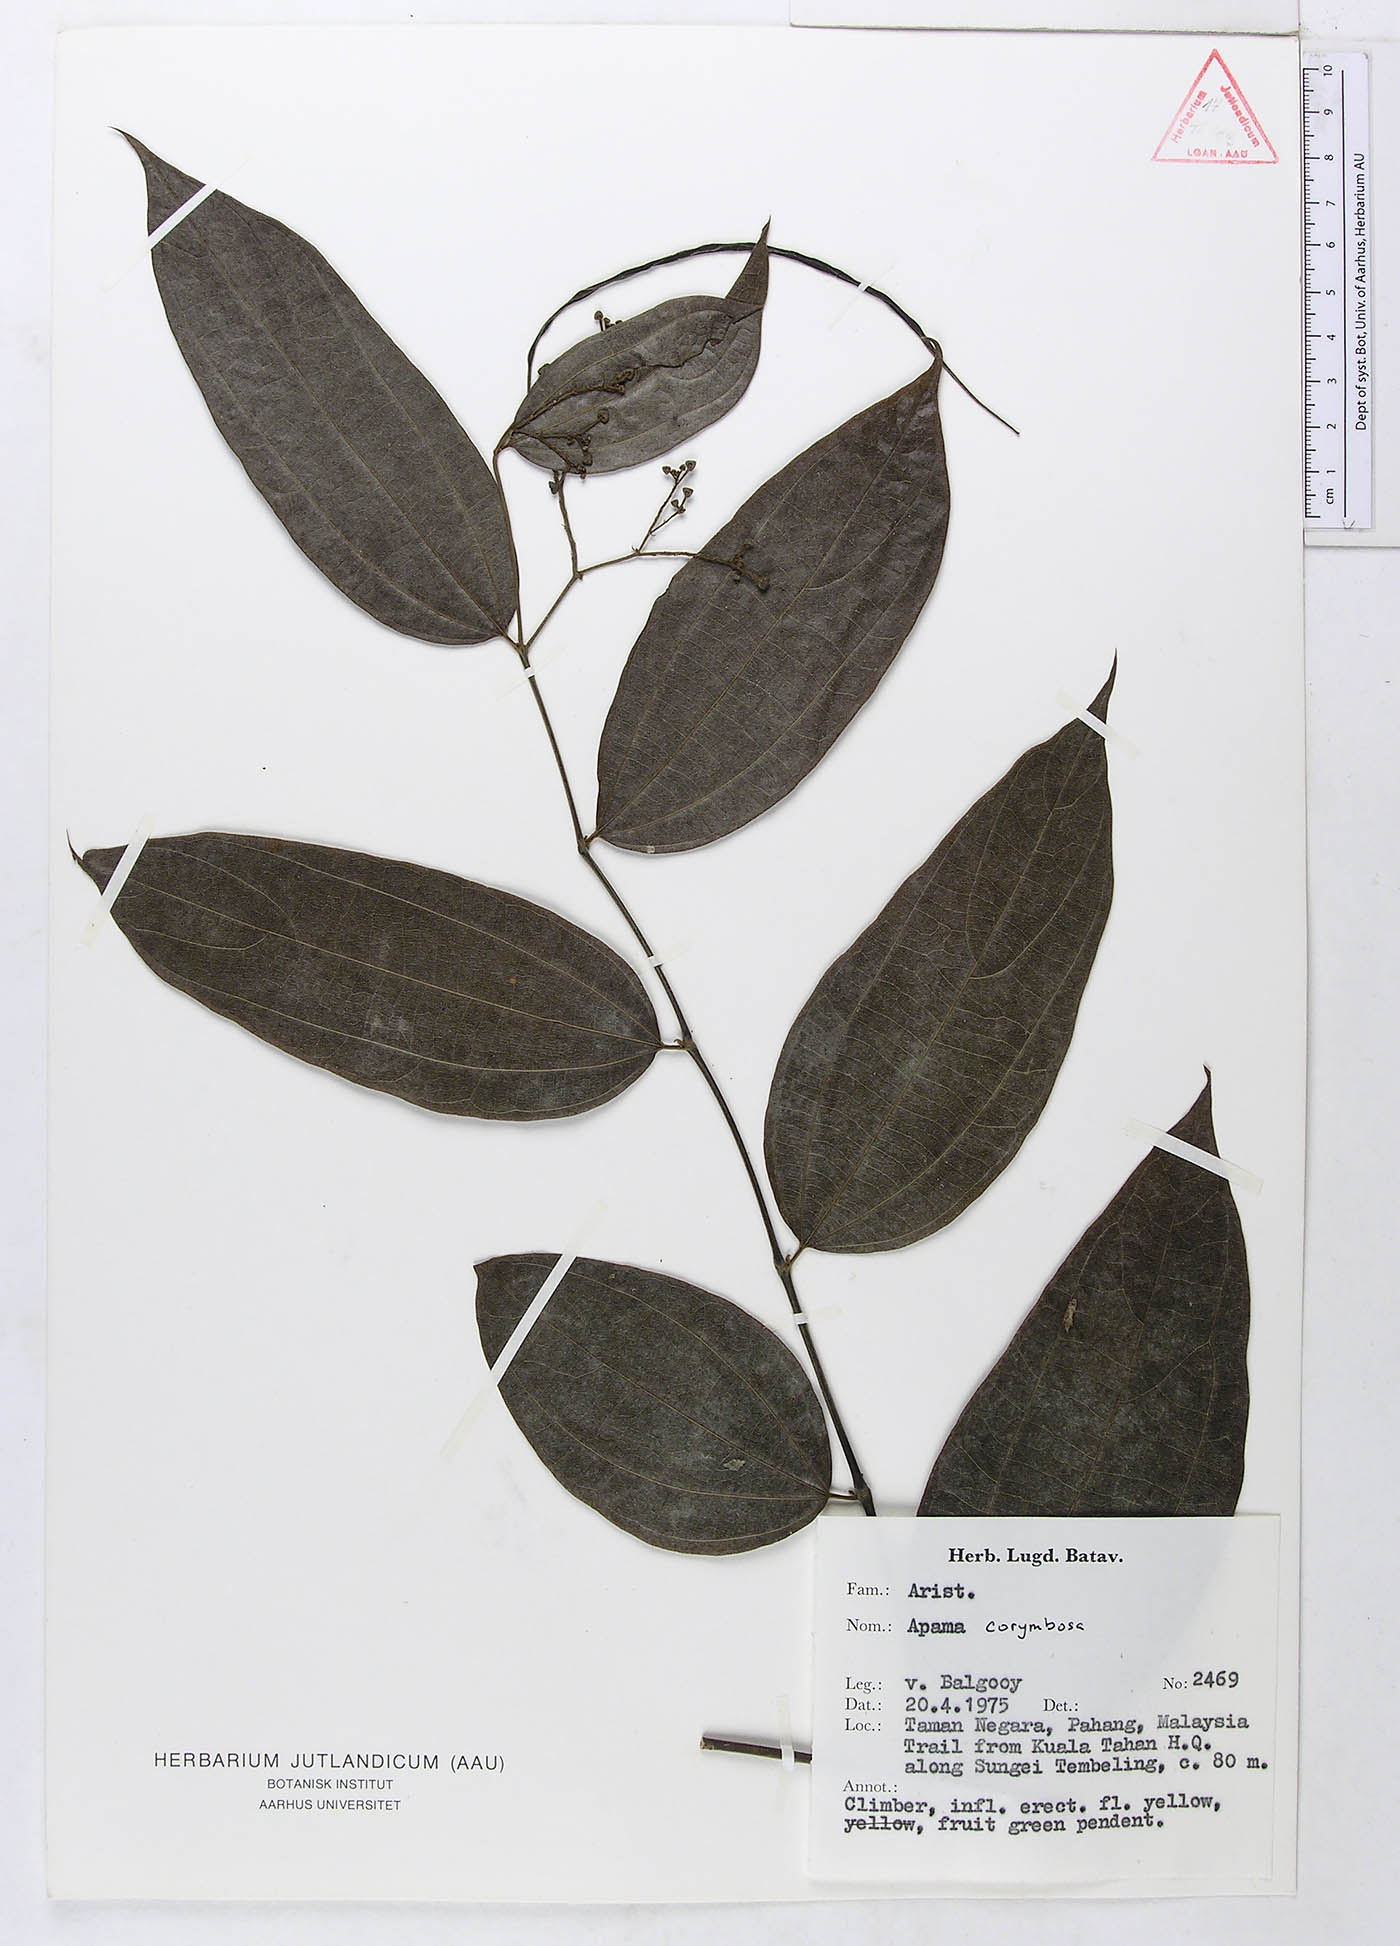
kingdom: Plantae
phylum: Tracheophyta
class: Magnoliopsida
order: Piperales
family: Aristolochiaceae
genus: Thottea
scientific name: Thottea piperiformis
